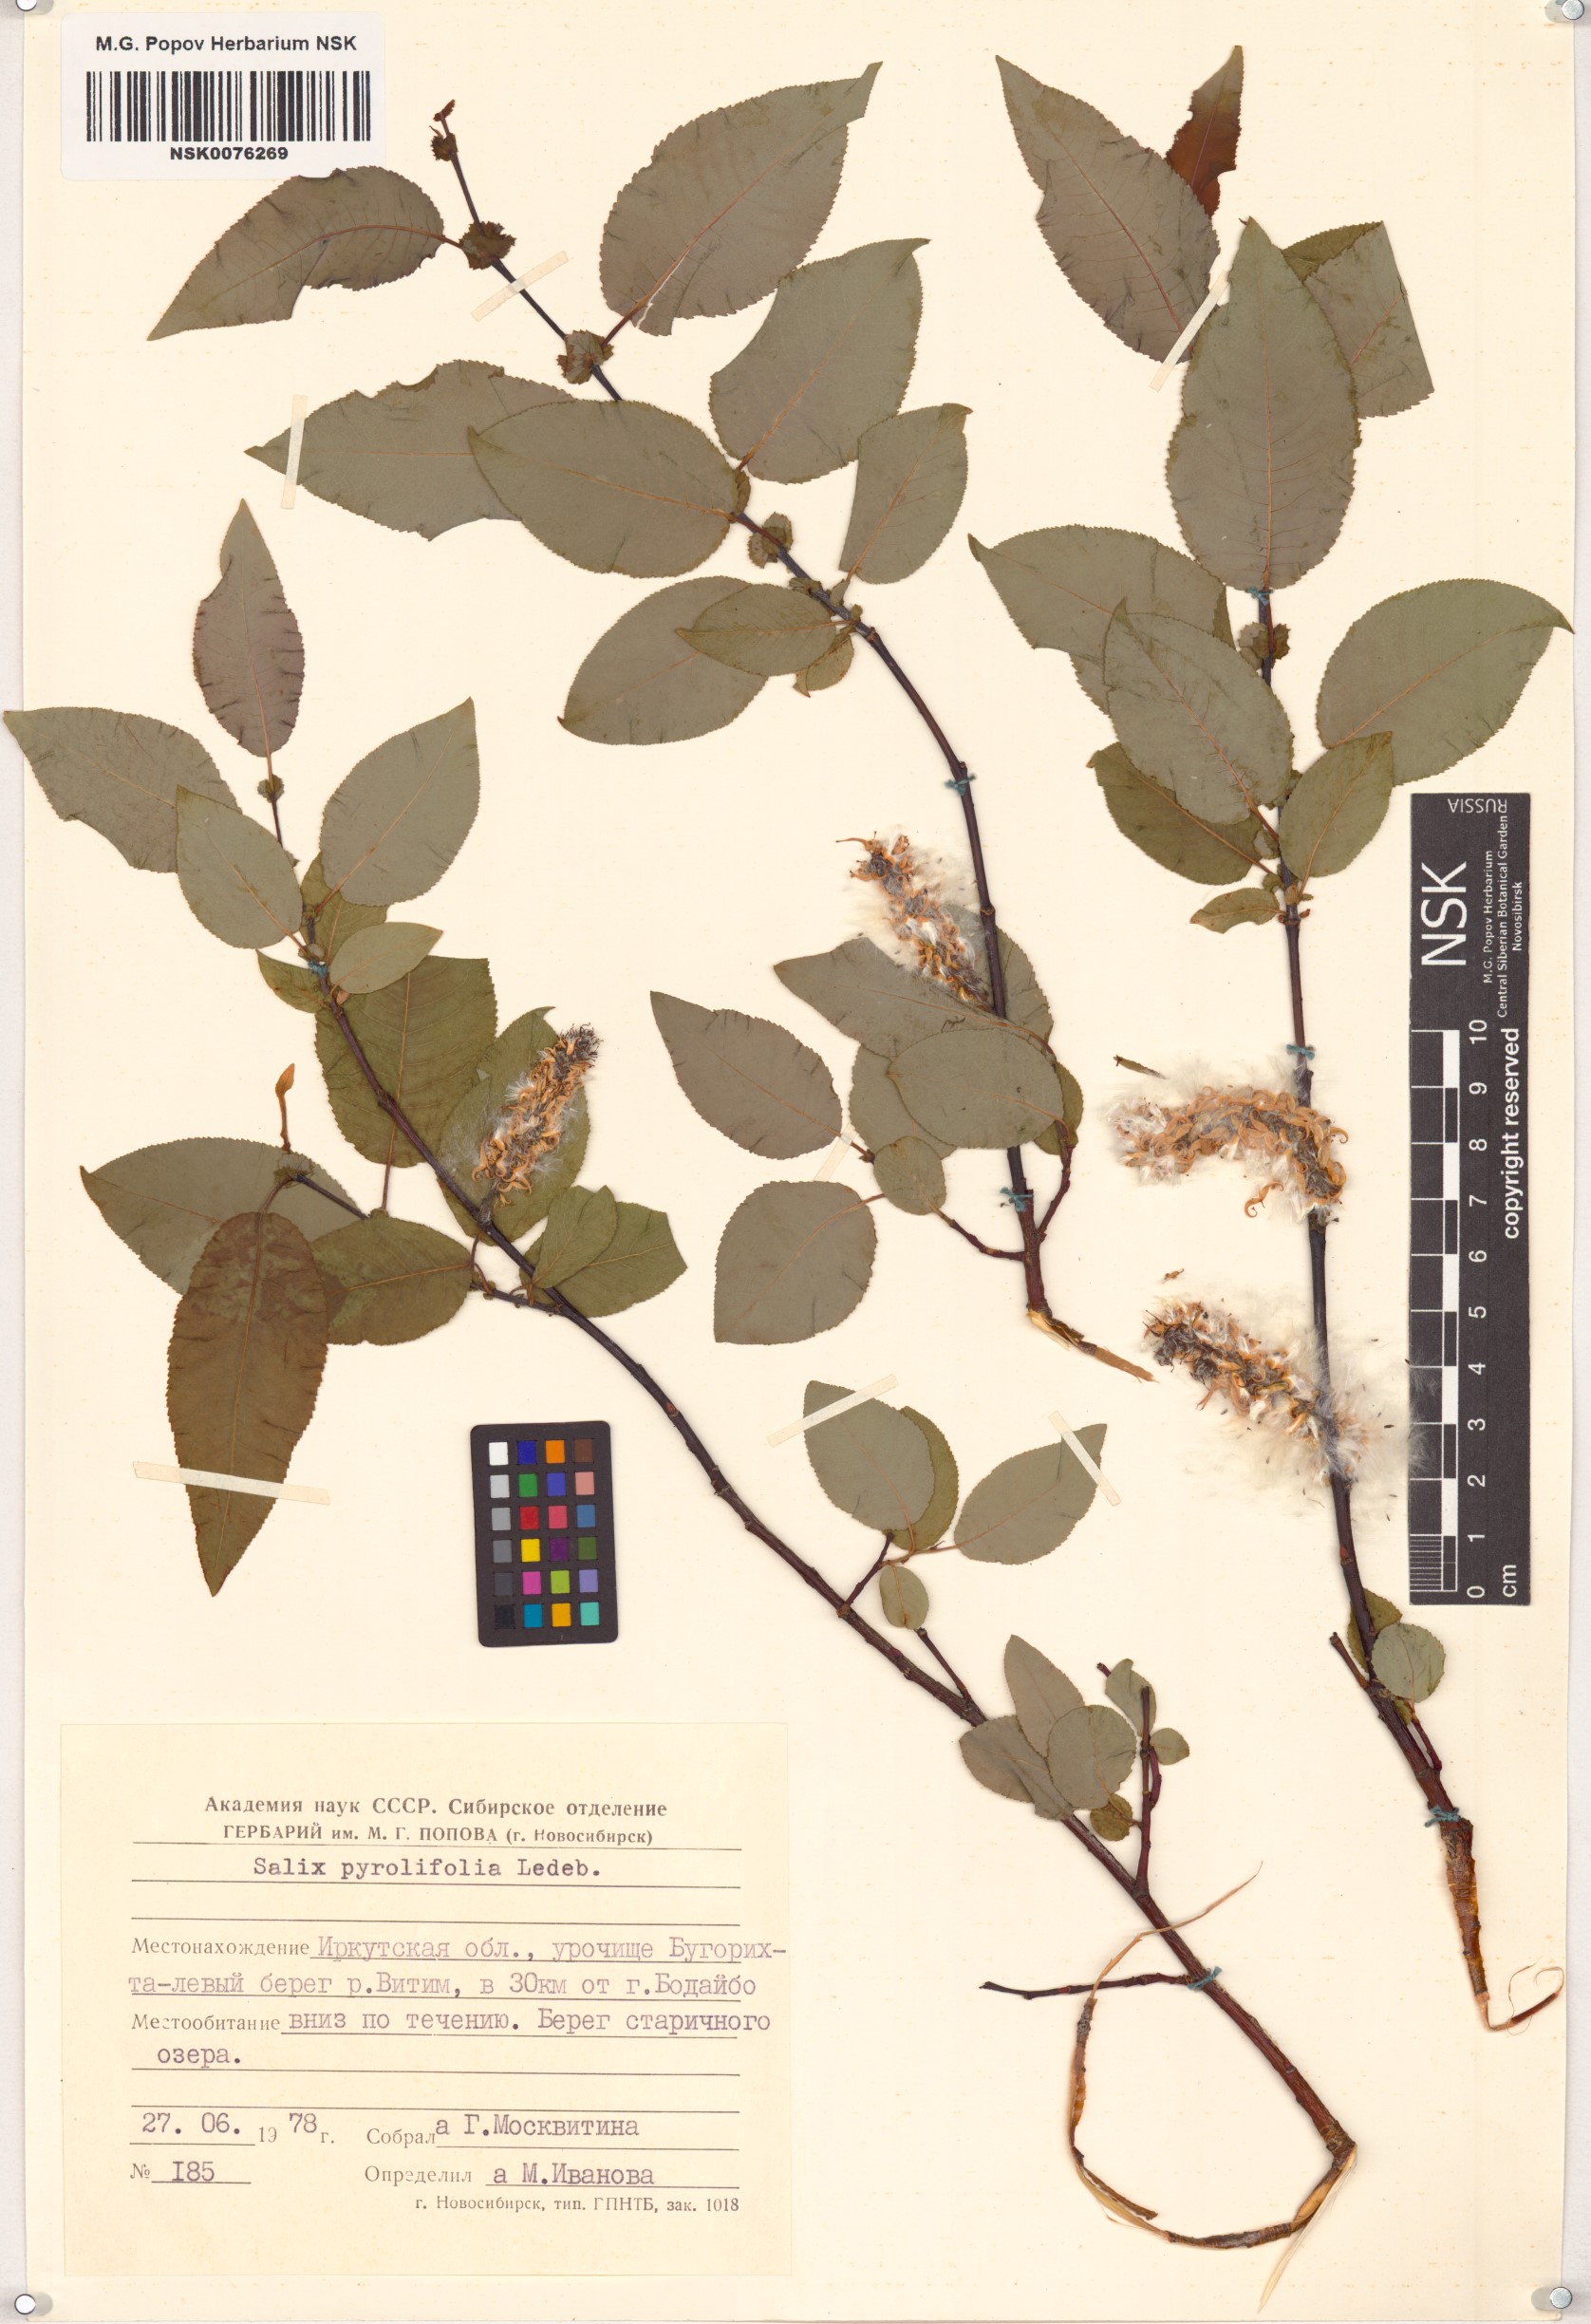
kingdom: Plantae
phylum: Tracheophyta
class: Magnoliopsida
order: Malpighiales
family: Salicaceae
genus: Salix
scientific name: Salix pyrolifolia
